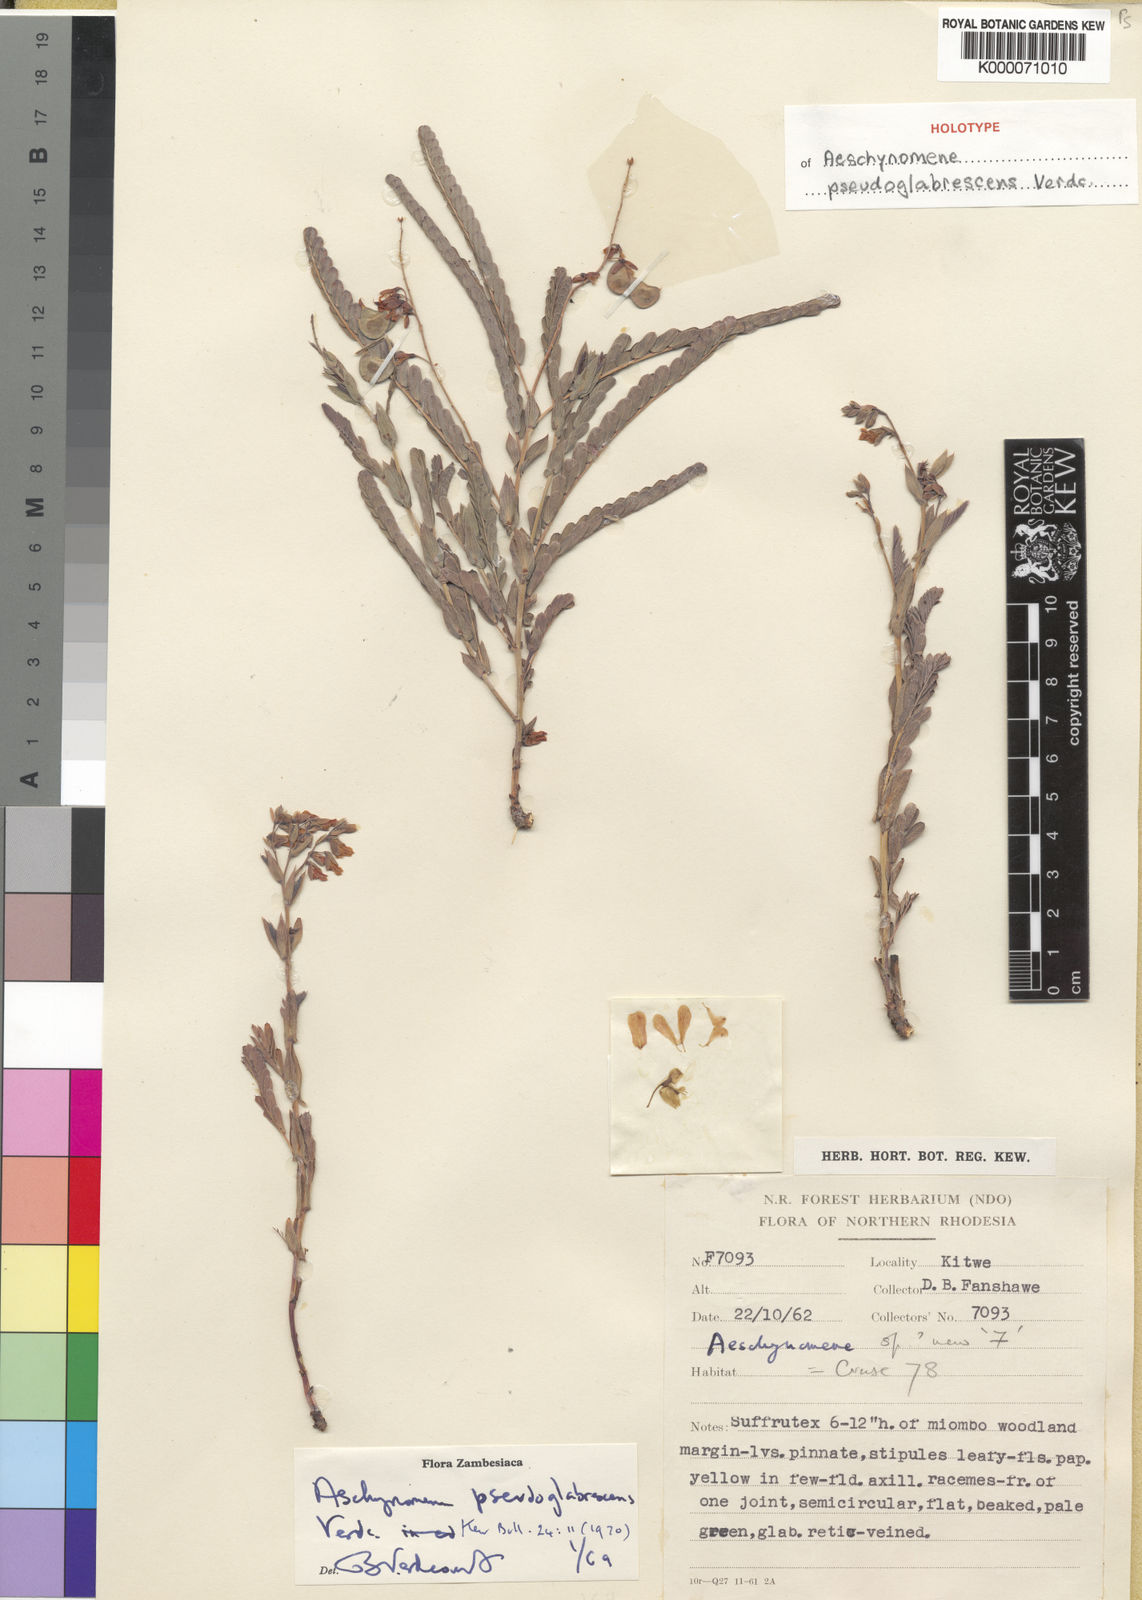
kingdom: Plantae
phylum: Tracheophyta
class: Magnoliopsida
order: Fabales
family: Fabaceae
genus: Aeschynomene
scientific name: Aeschynomene pseudoglabrescens
